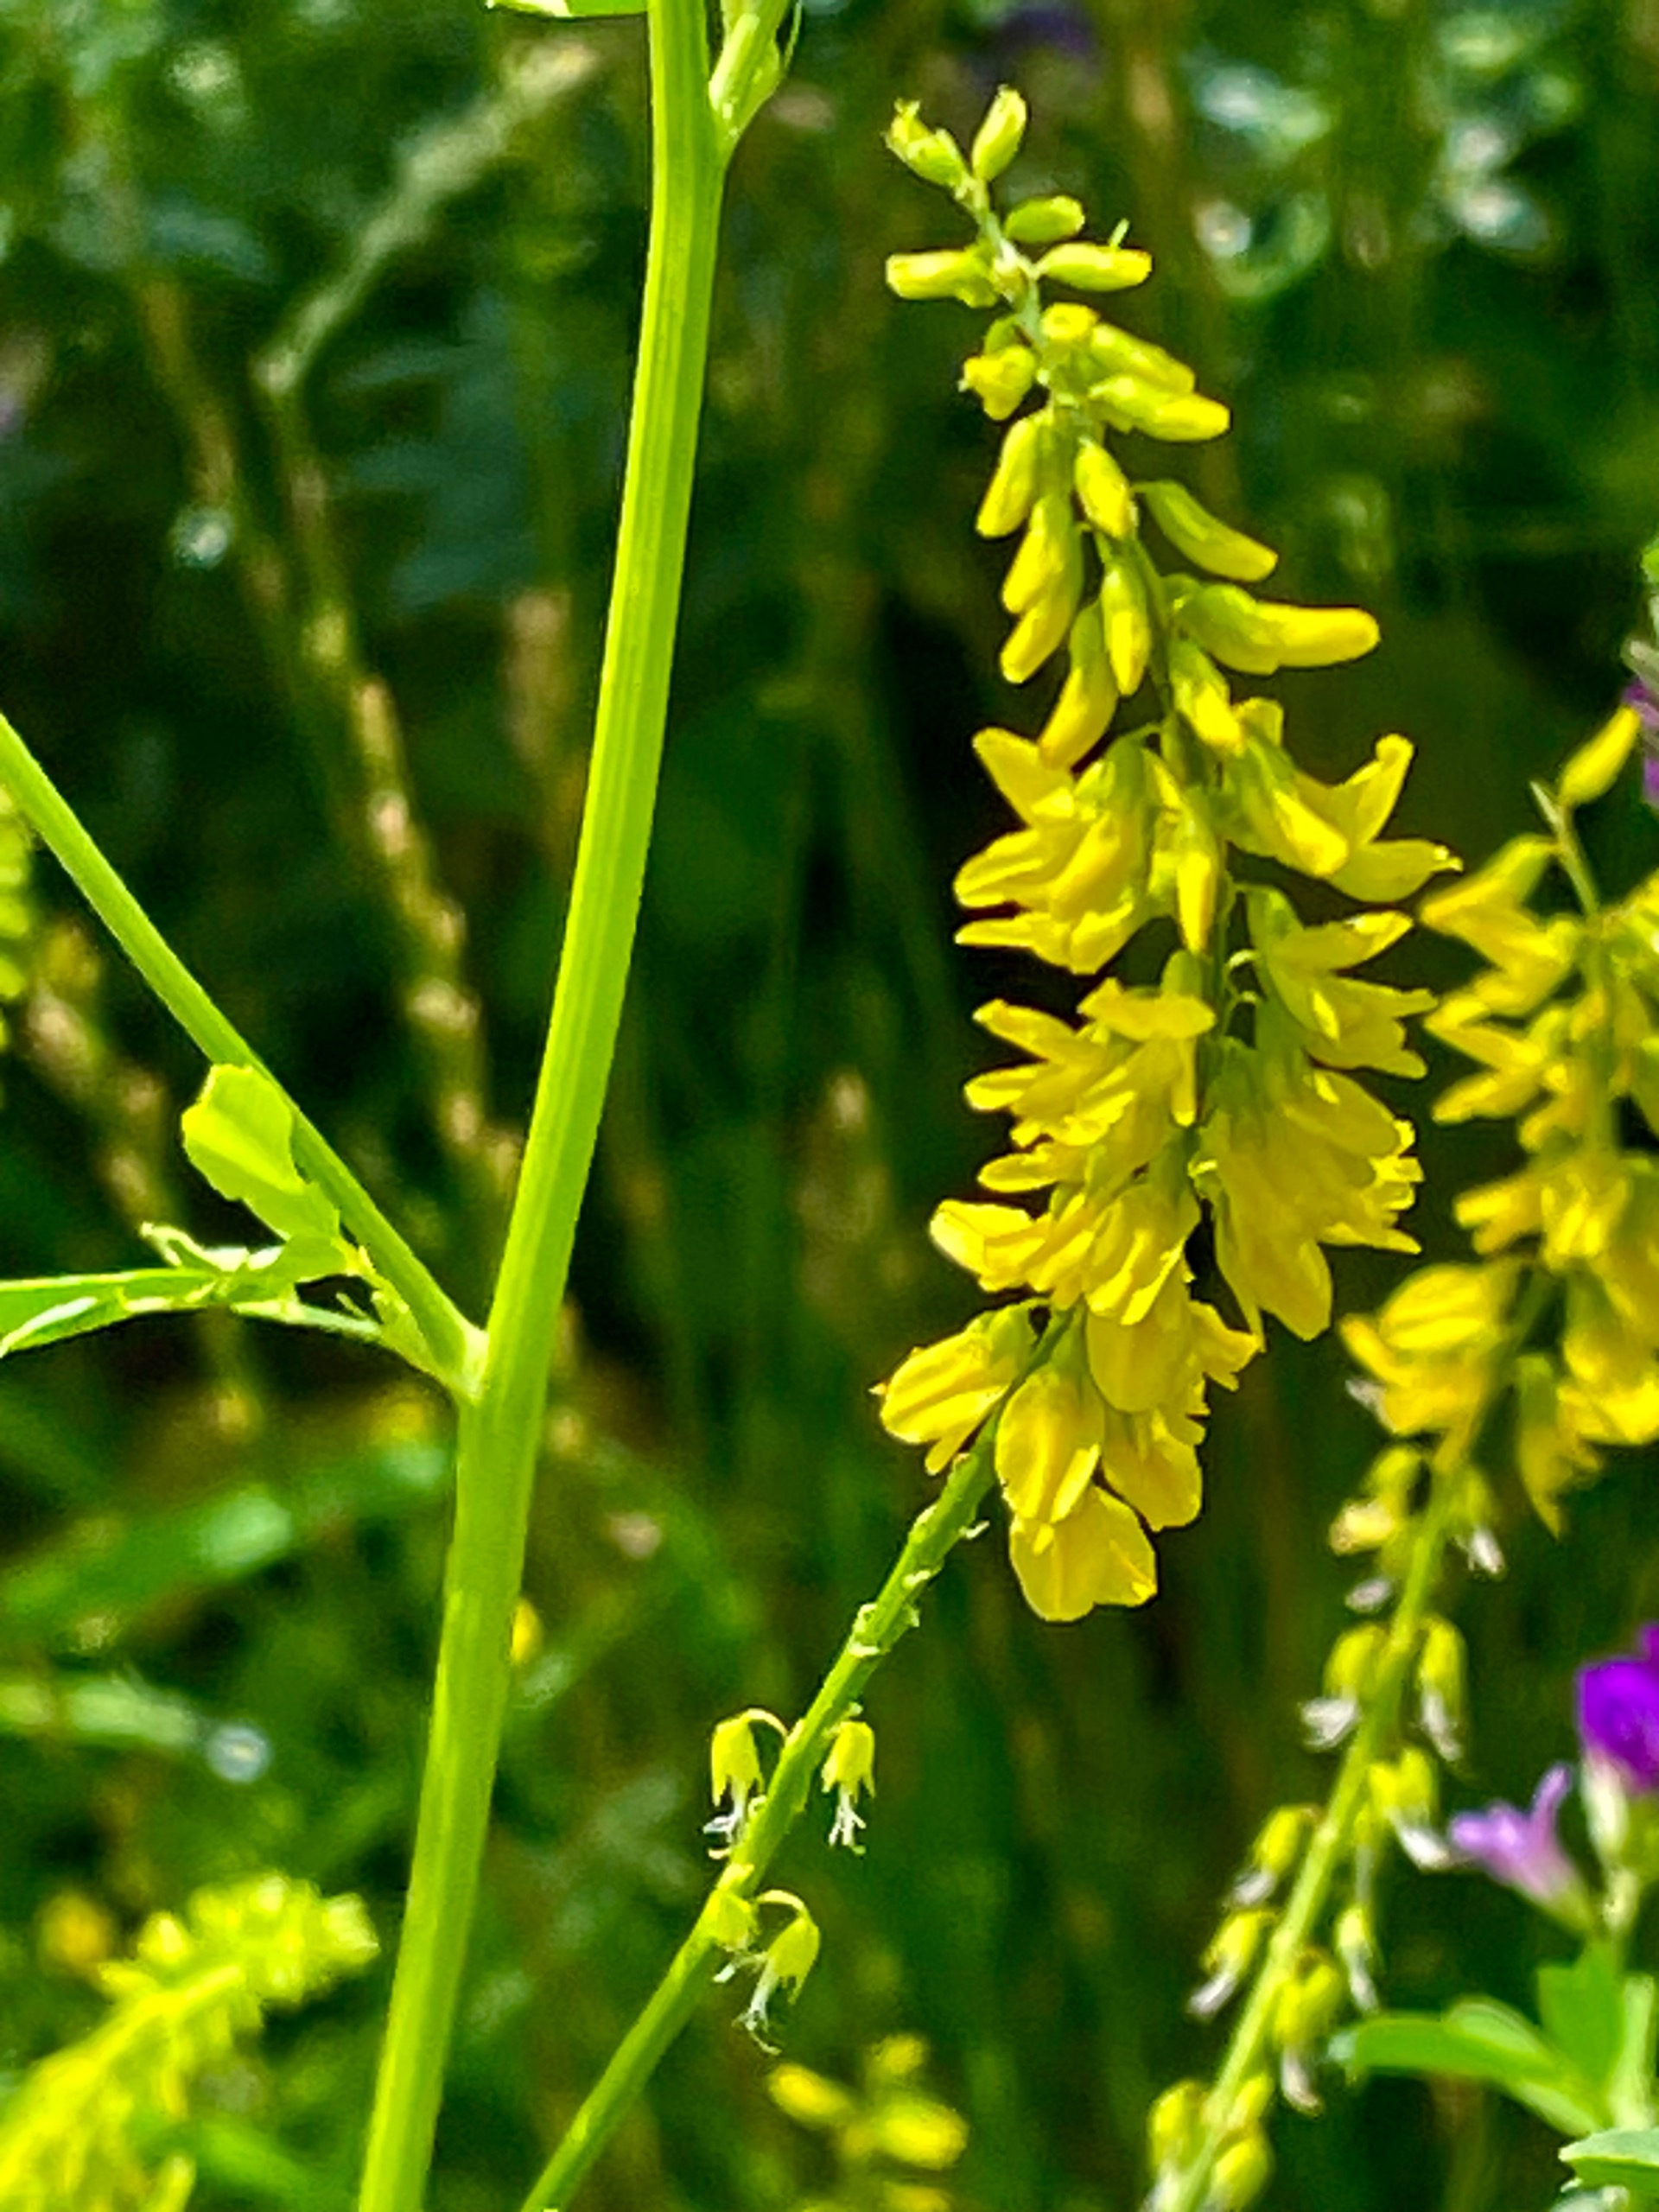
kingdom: Plantae
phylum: Tracheophyta
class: Magnoliopsida
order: Fabales
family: Fabaceae
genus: Melilotus
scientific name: Melilotus officinalis
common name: Mark-stenkløver
